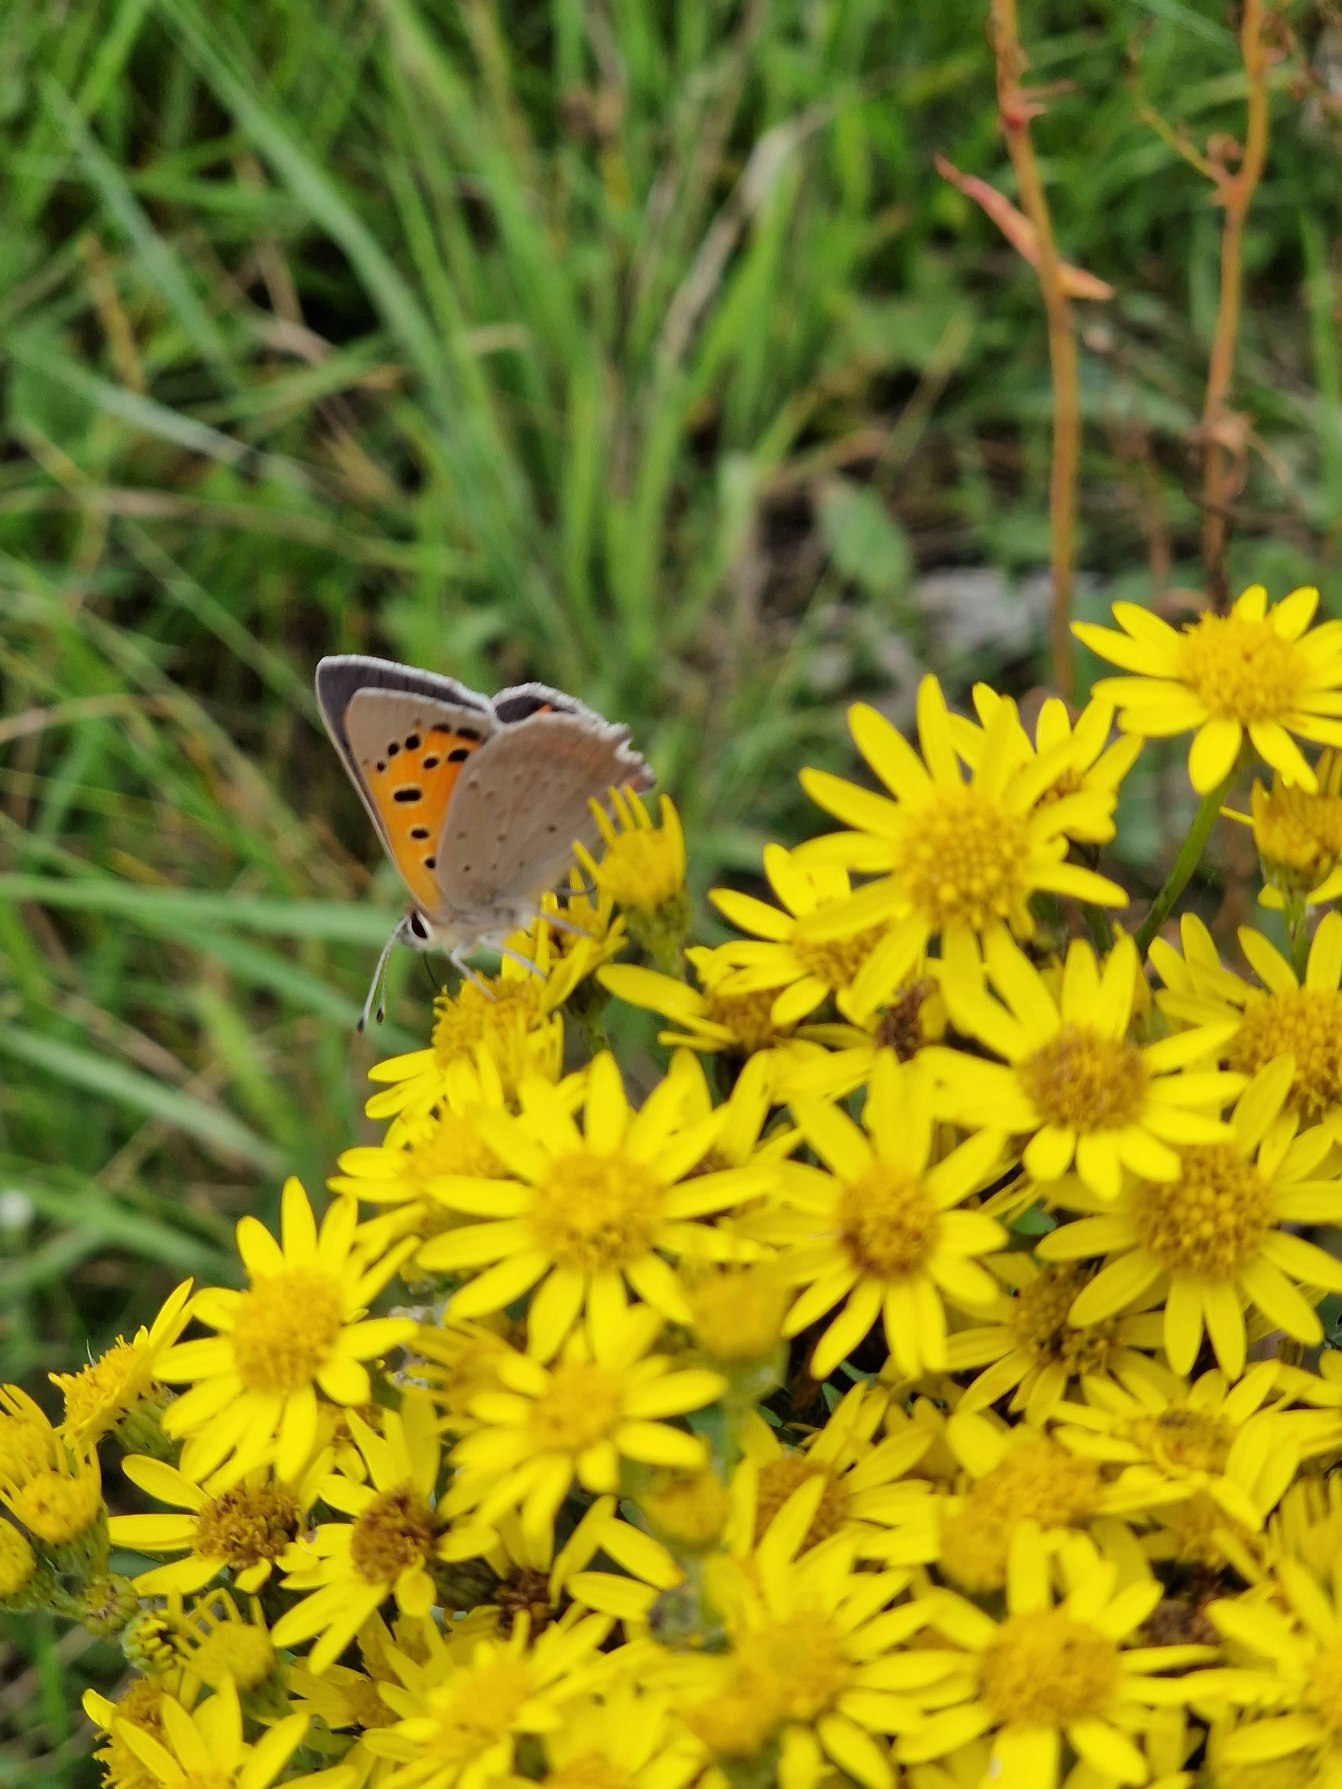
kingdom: Animalia
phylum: Arthropoda
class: Insecta
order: Lepidoptera
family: Lycaenidae
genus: Lycaena
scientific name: Lycaena phlaeas
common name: Lille ildfugl
